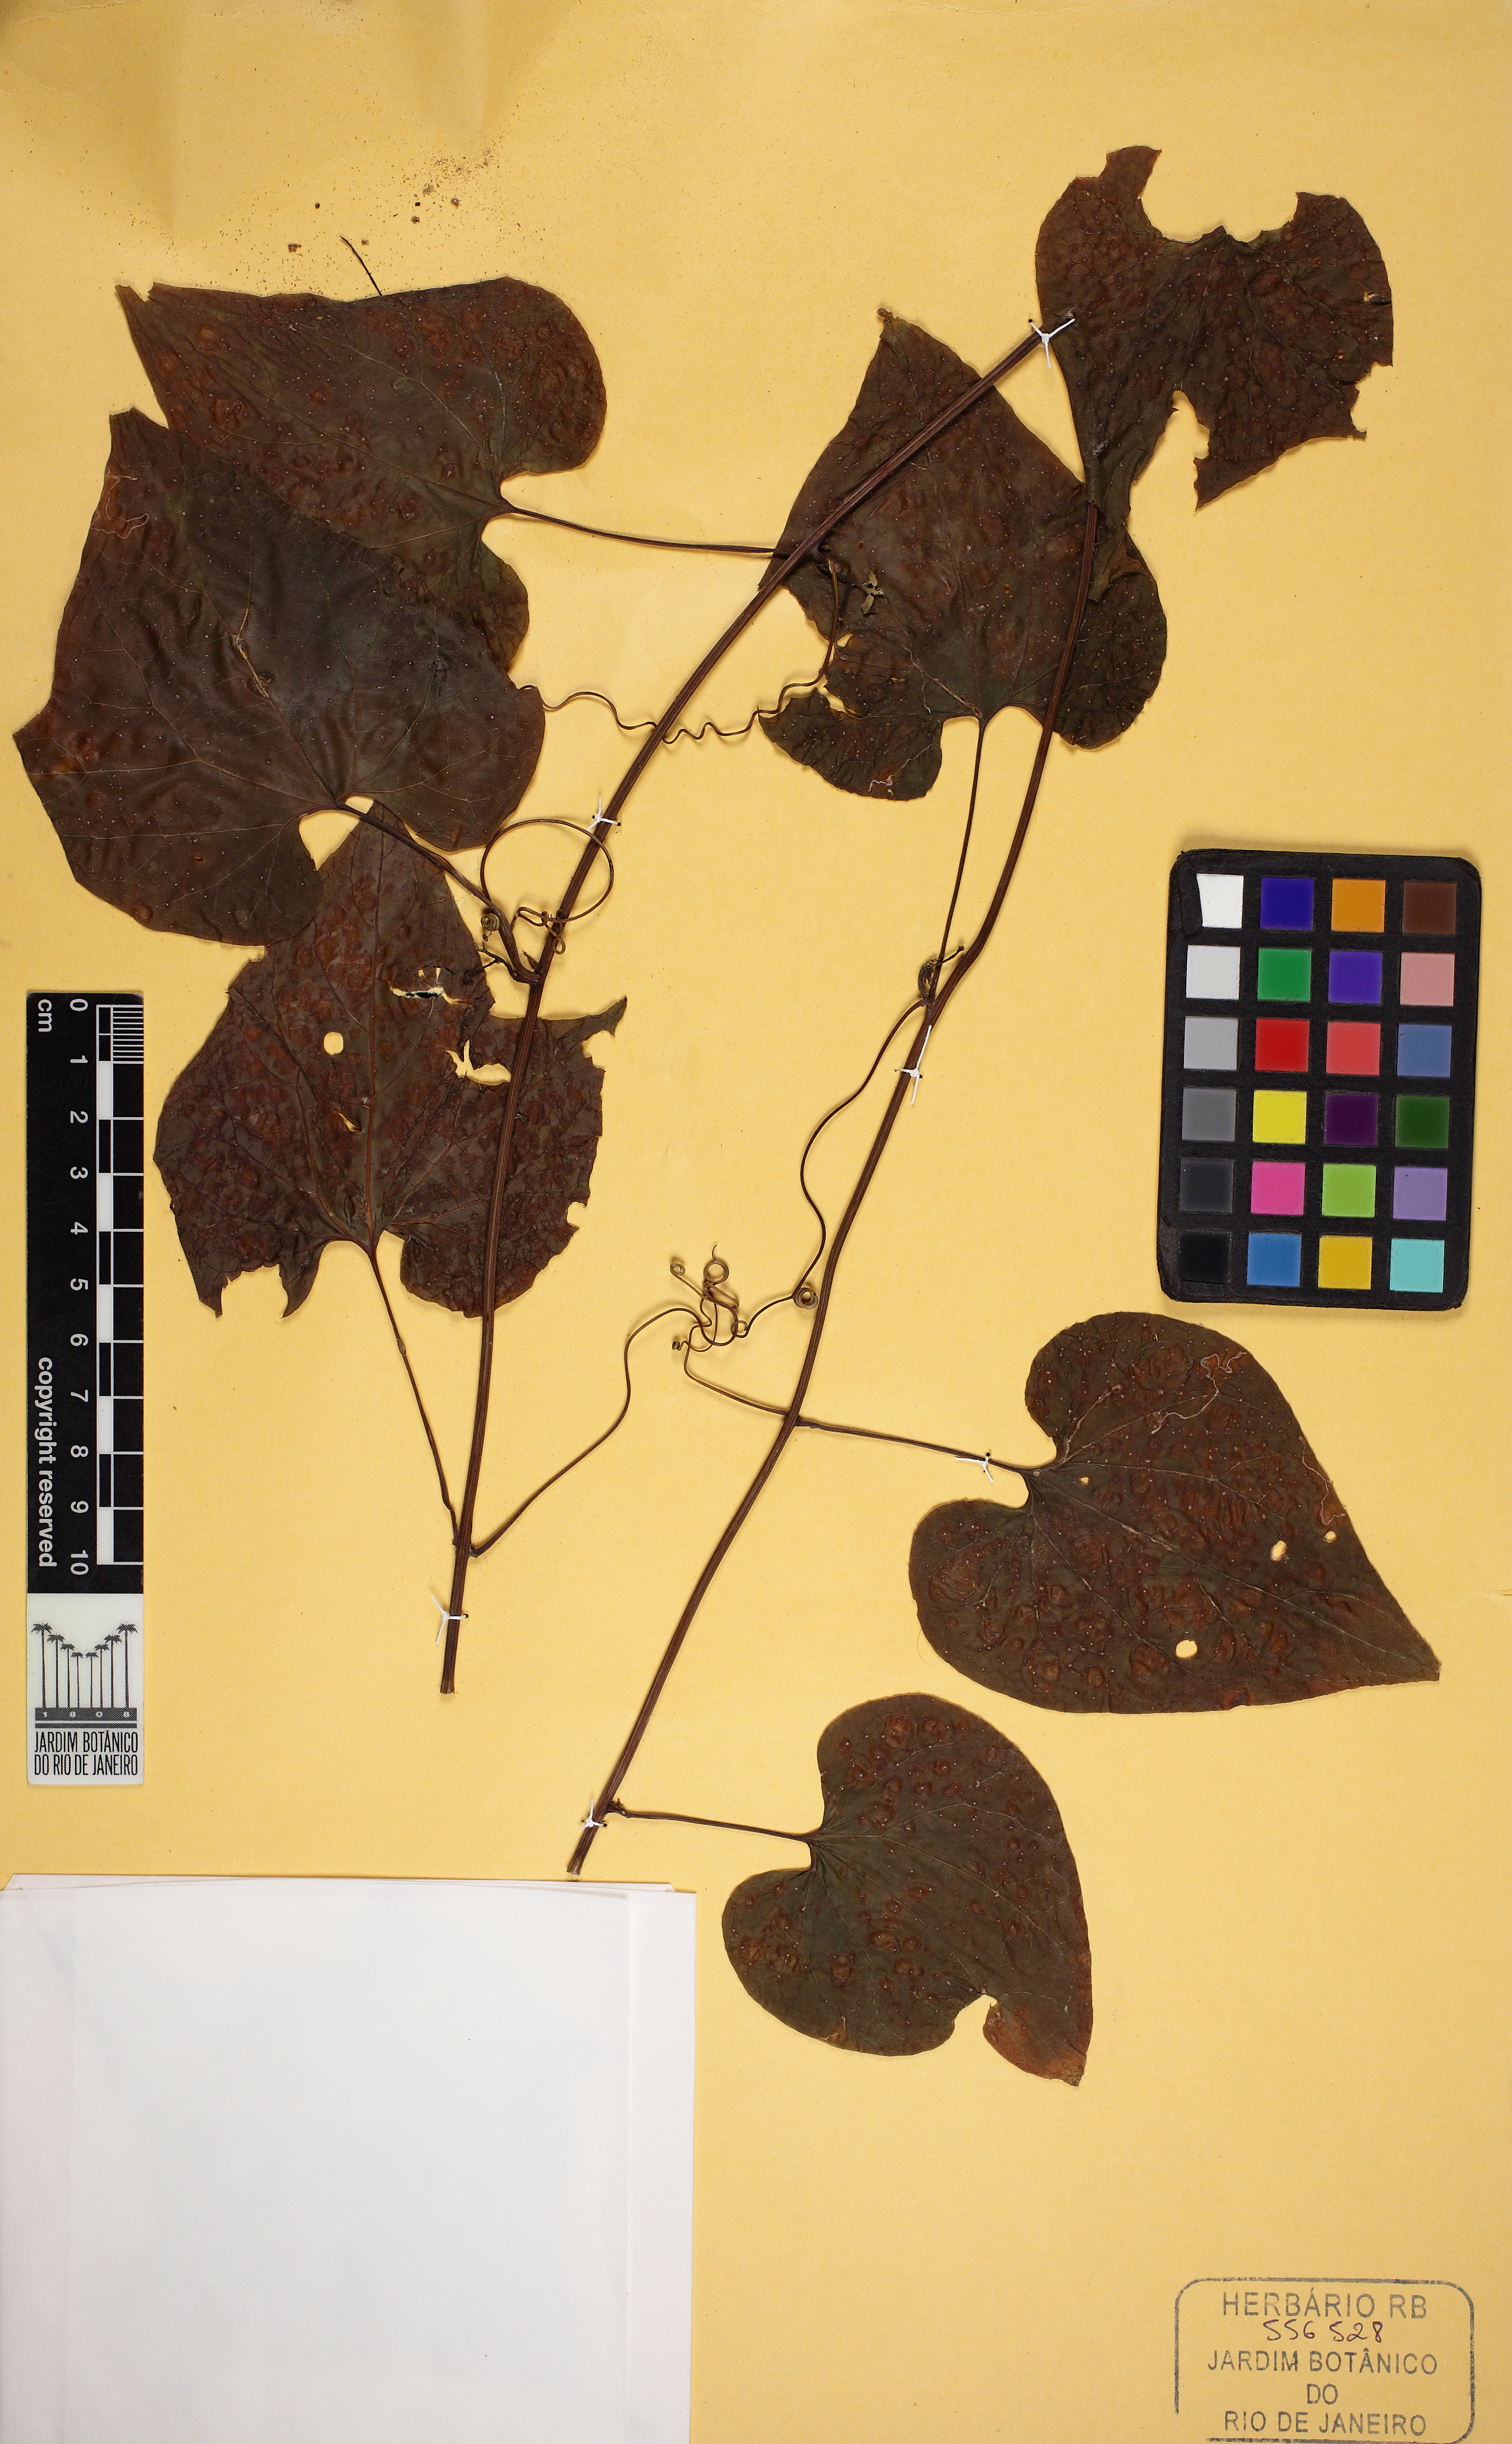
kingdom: Plantae
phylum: Tracheophyta
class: Magnoliopsida
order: Cucurbitales
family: Cucurbitaceae
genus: Fevillea
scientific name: Fevillea trilobata
